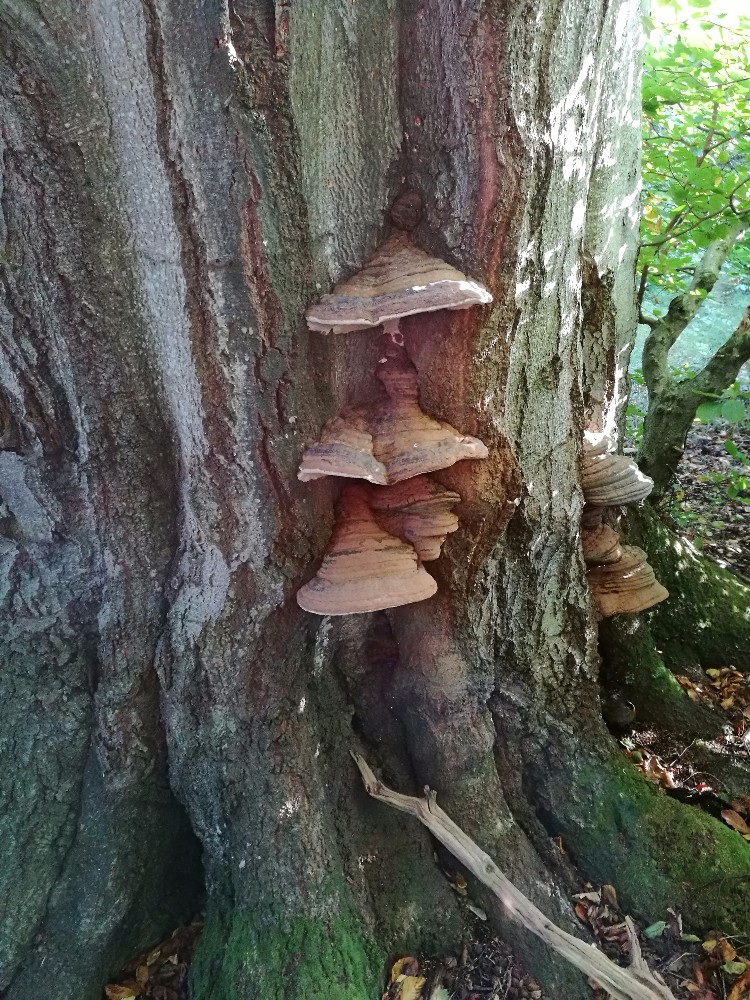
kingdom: Fungi
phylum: Basidiomycota
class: Agaricomycetes
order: Polyporales
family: Polyporaceae
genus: Ganoderma
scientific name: Ganoderma pfeifferi
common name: kobberrød lakporesvamp
